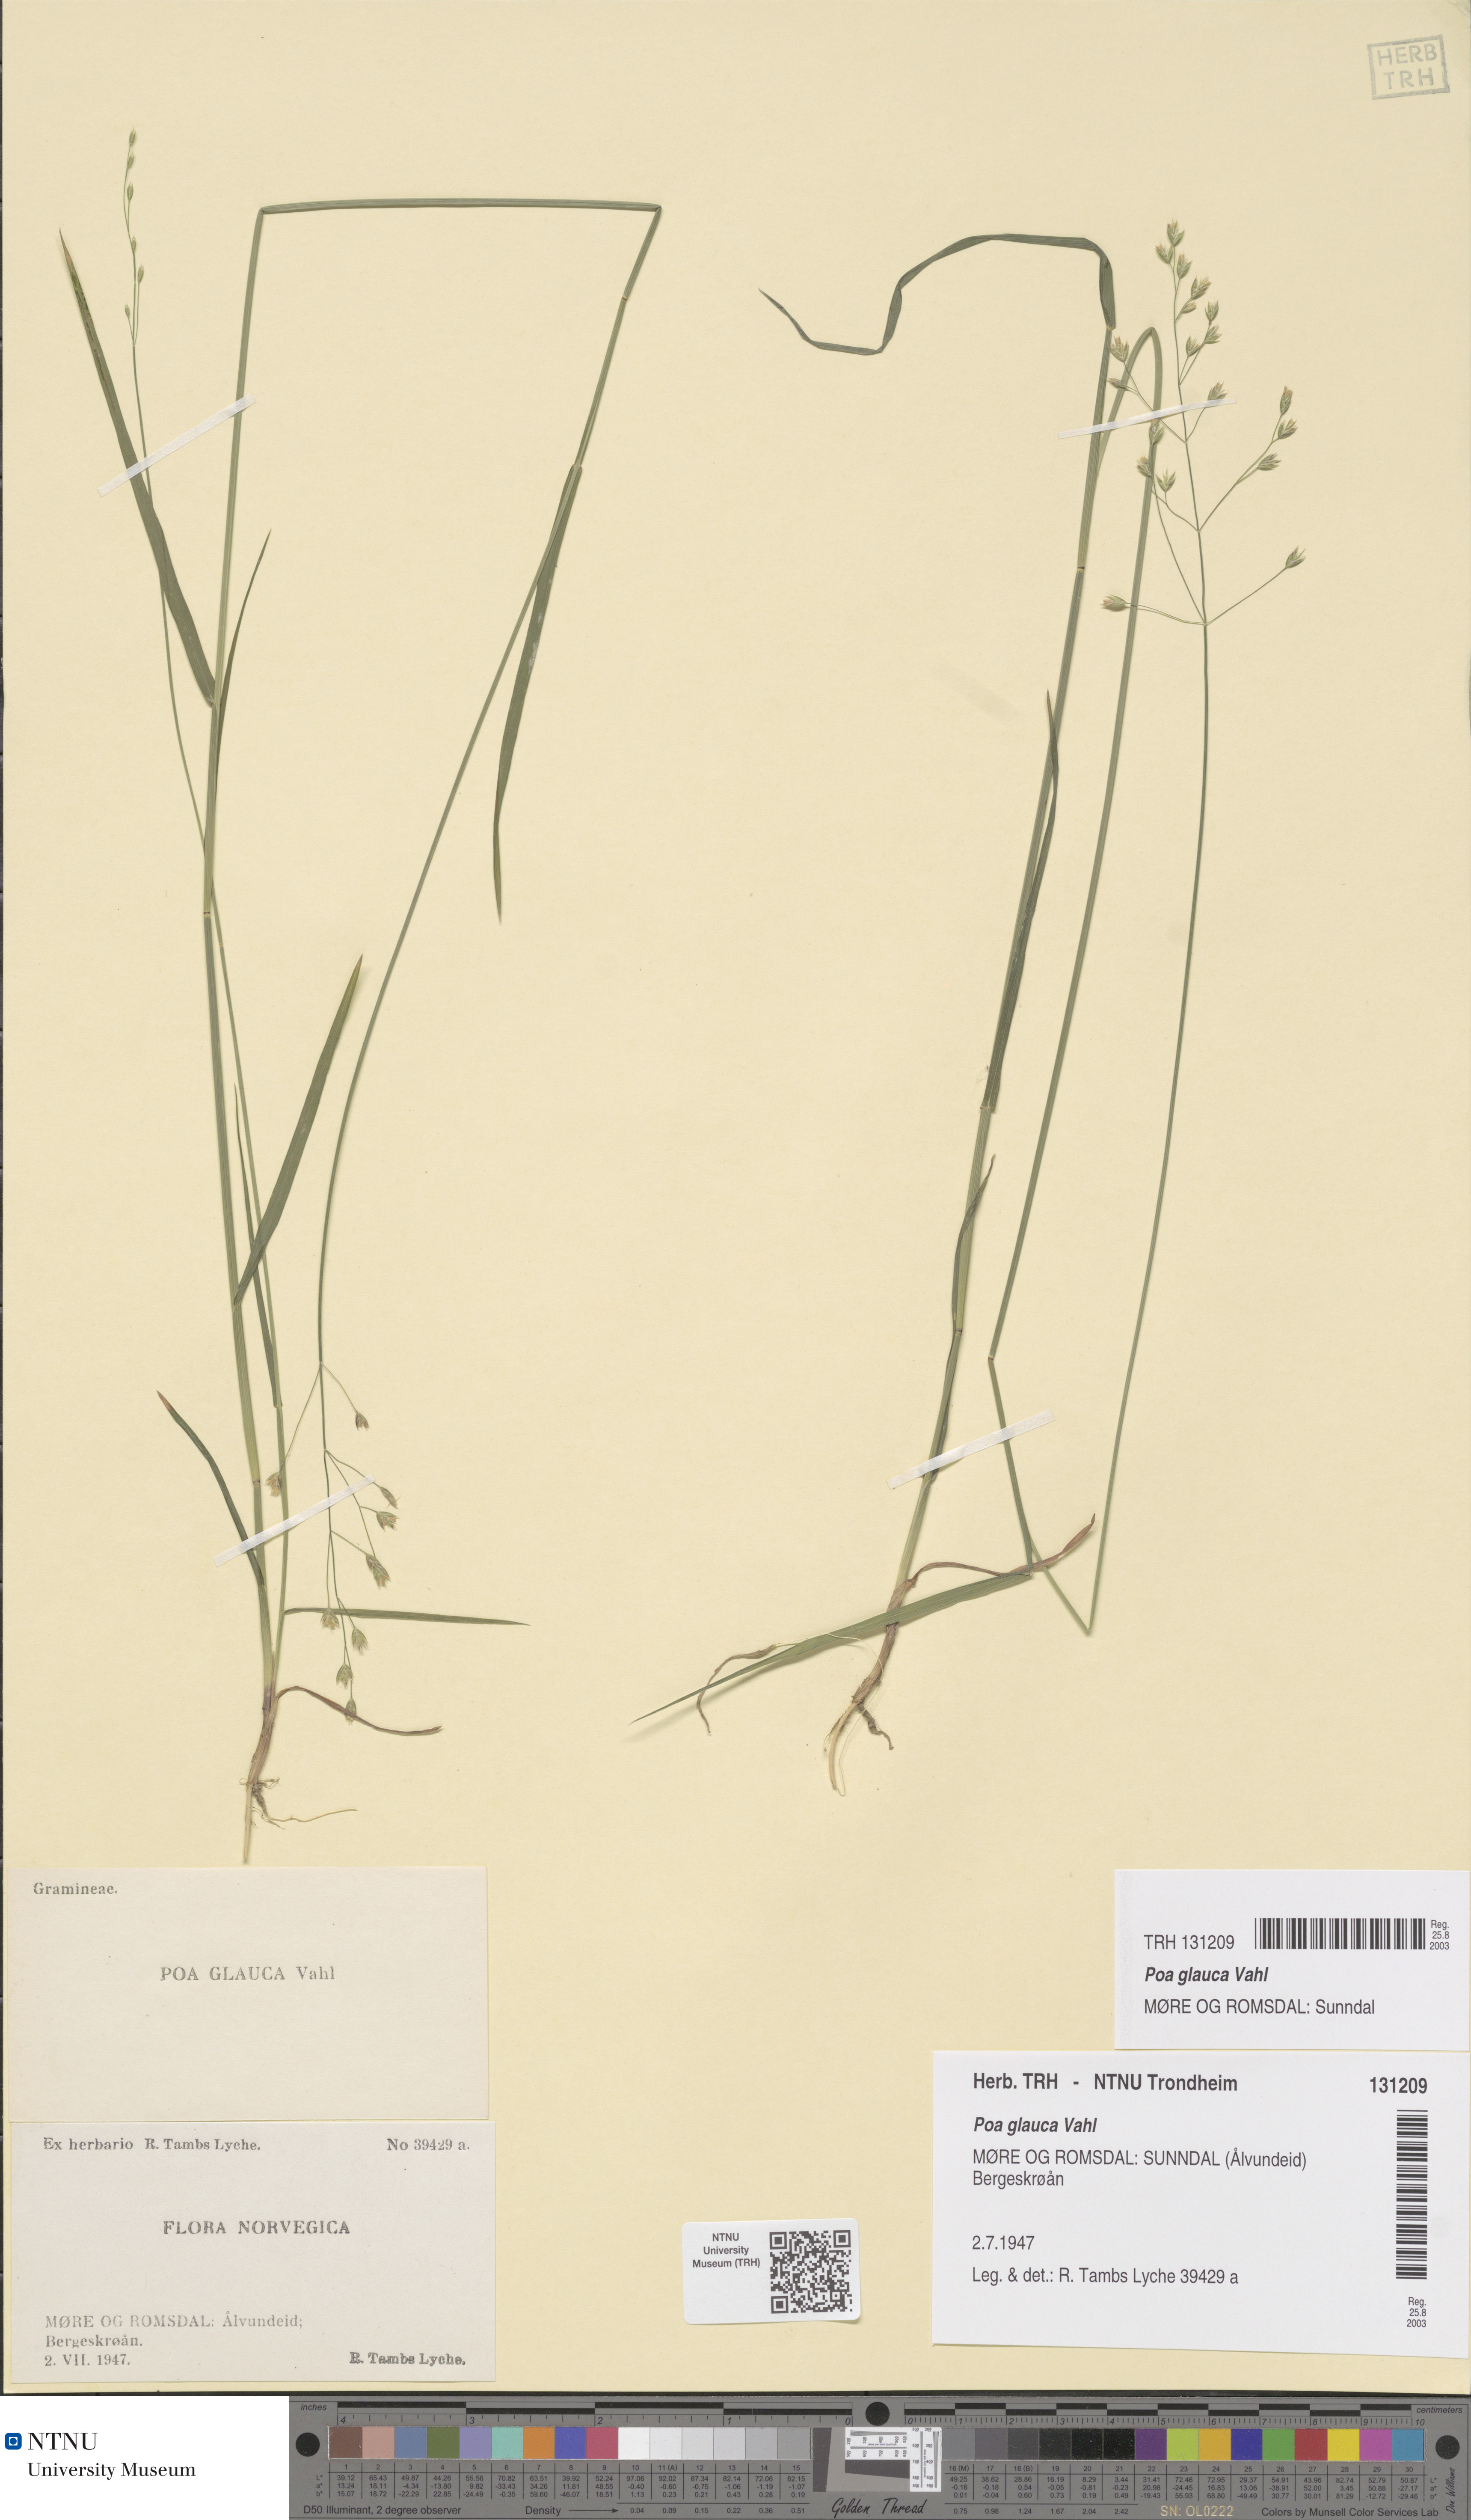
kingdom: Plantae
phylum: Tracheophyta
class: Liliopsida
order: Poales
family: Poaceae
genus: Poa
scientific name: Poa glauca
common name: Glaucous bluegrass
